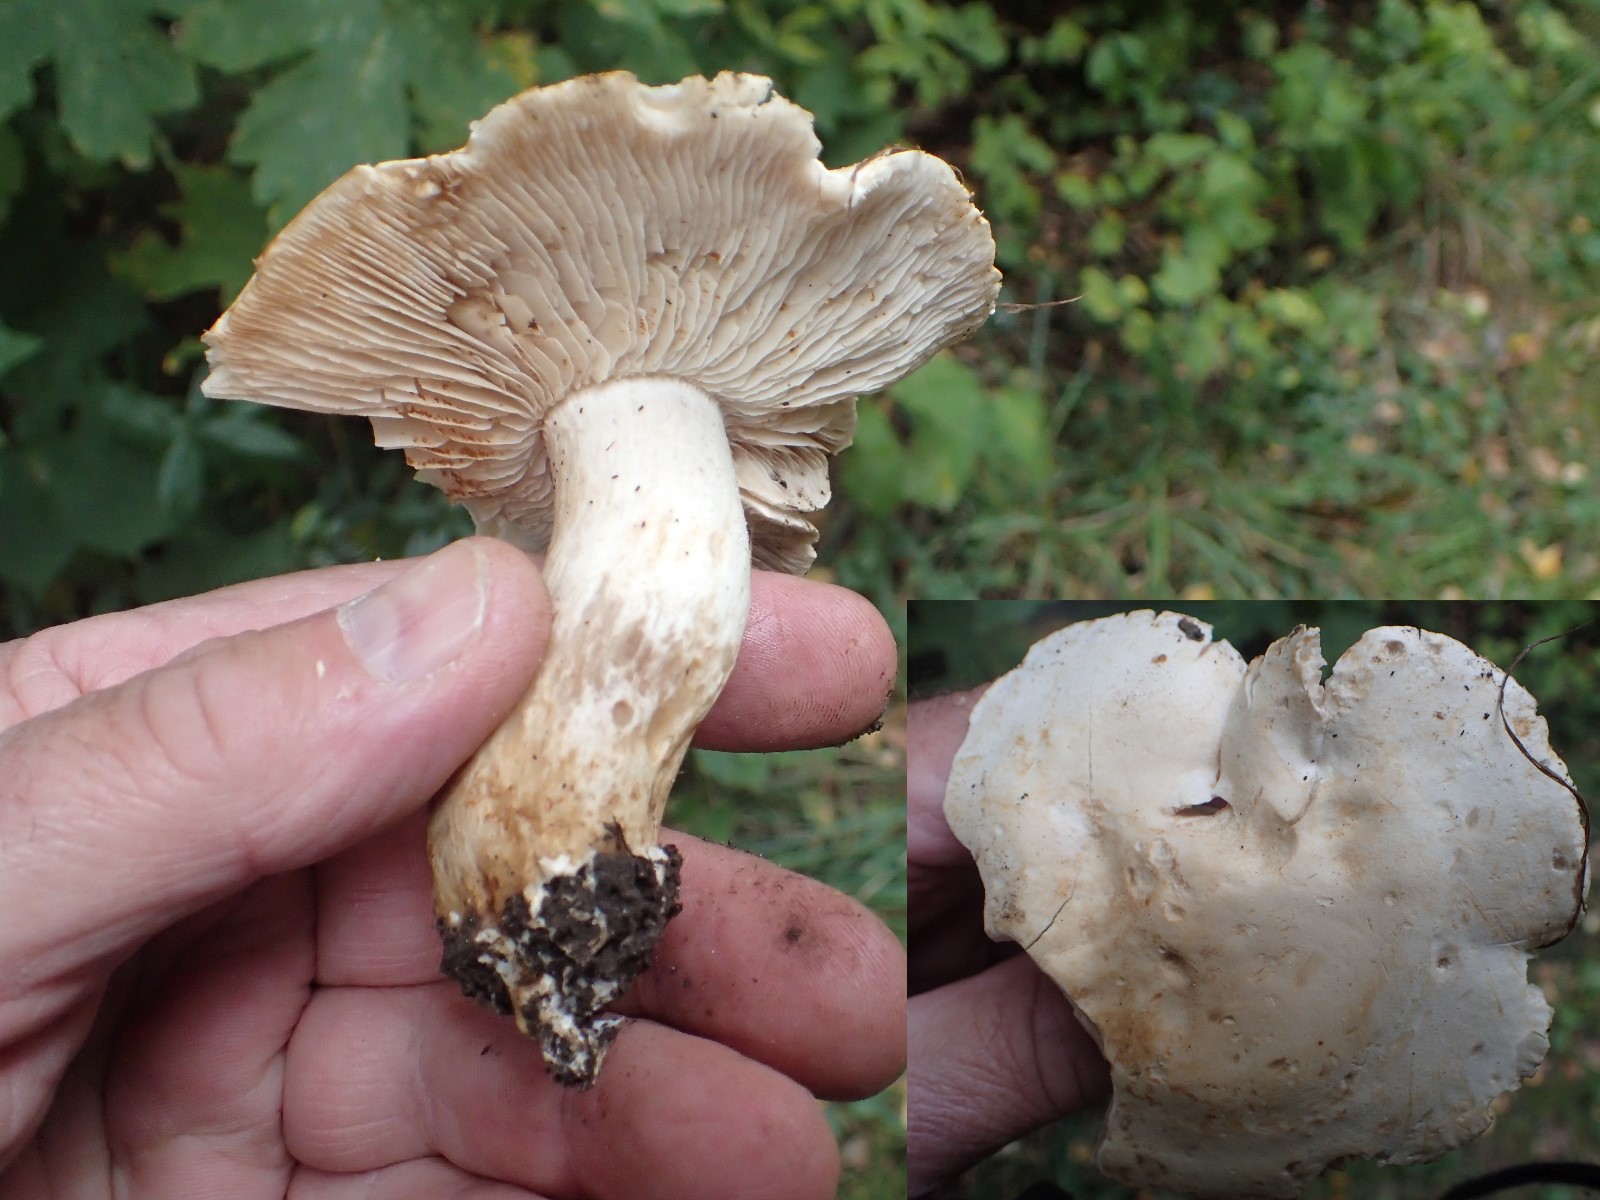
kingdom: Fungi
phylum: Basidiomycota
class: Agaricomycetes
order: Agaricales
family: Tricholomataceae
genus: Tricholoma
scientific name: Tricholoma stiparophyllum
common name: hvid ridderhat
